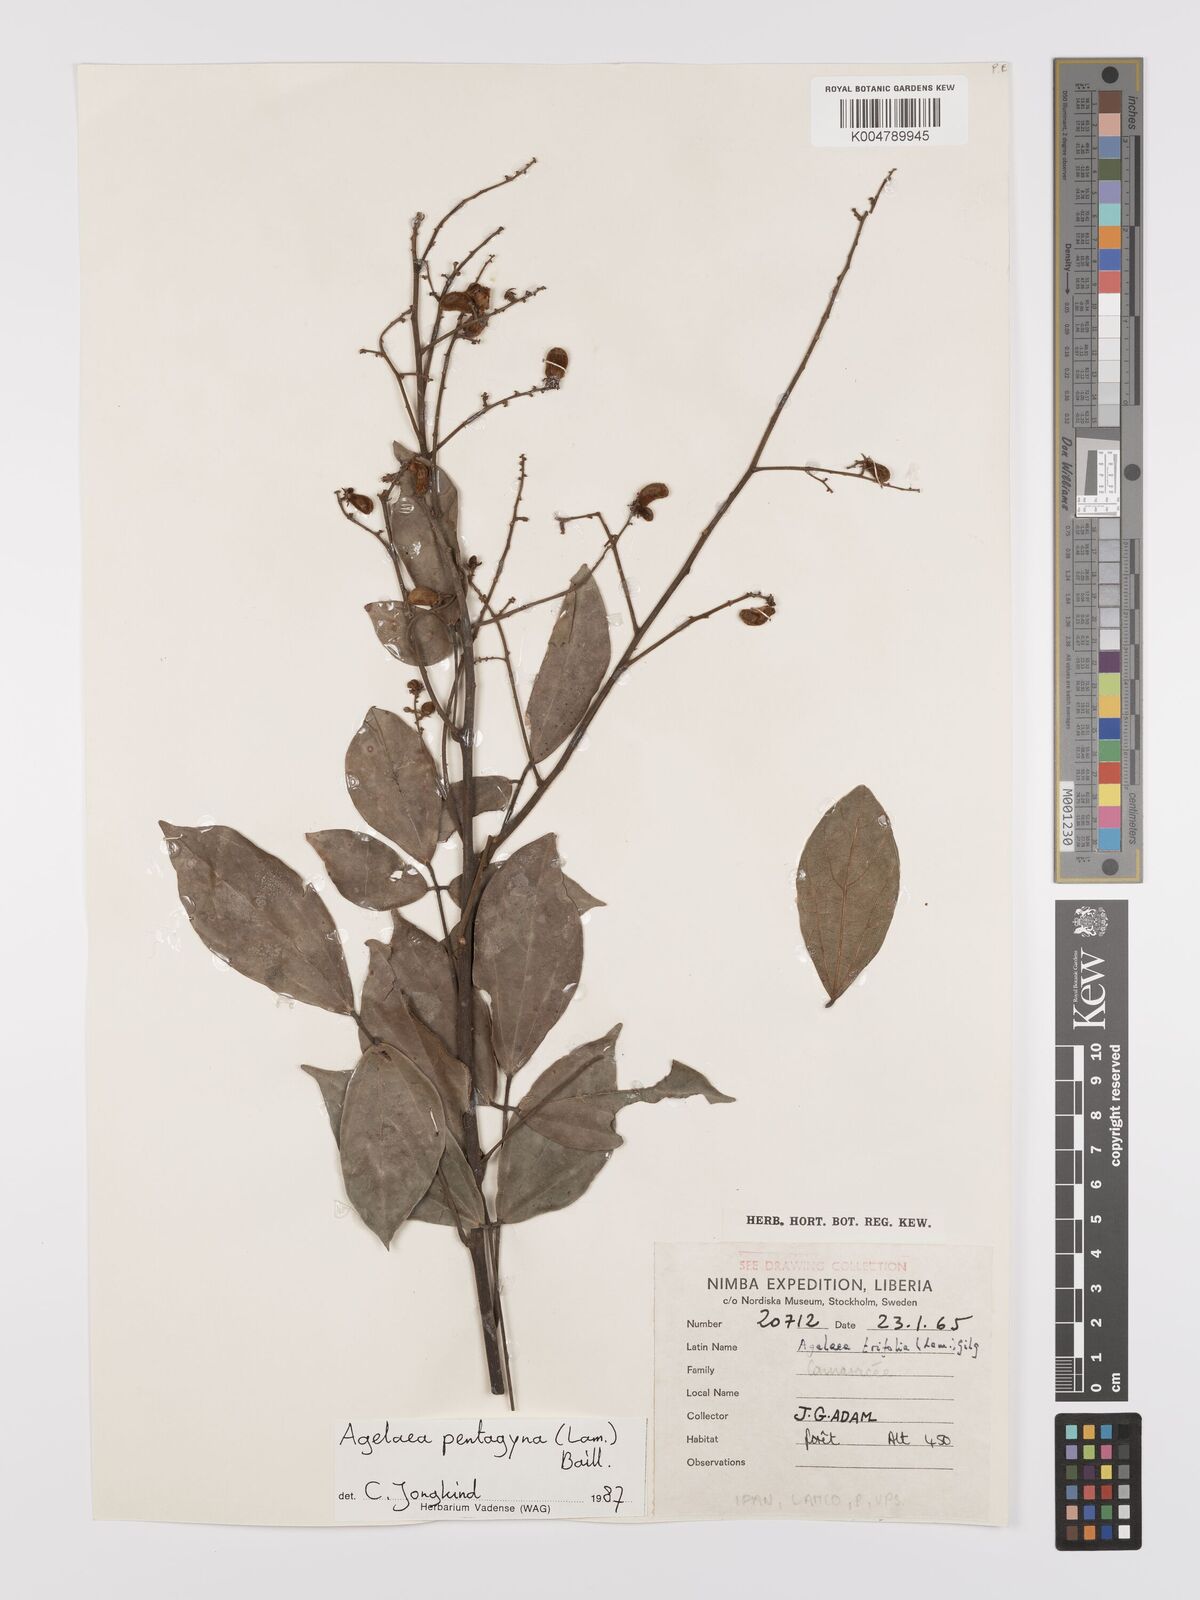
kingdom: Plantae
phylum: Tracheophyta
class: Magnoliopsida
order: Oxalidales
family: Connaraceae
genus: Agelaea
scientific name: Agelaea pentagyna
